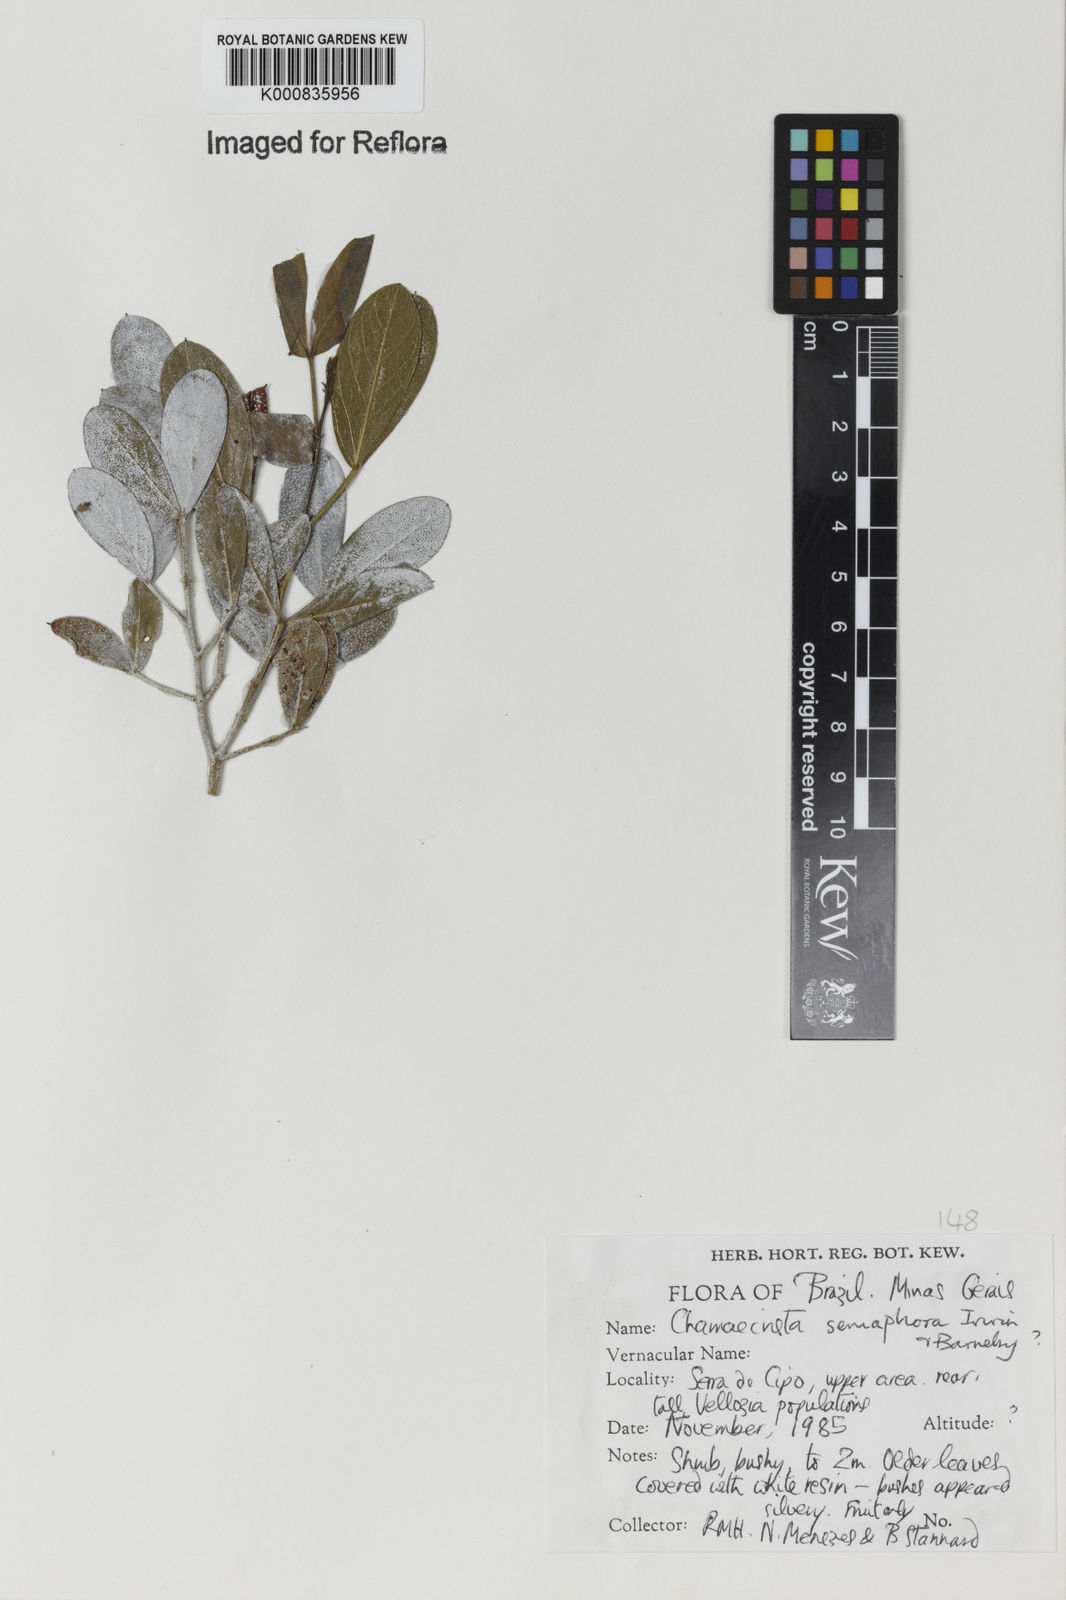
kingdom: Plantae
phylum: Tracheophyta
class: Magnoliopsida
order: Fabales
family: Fabaceae
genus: Chamaecrista
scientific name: Chamaecrista semaphora
